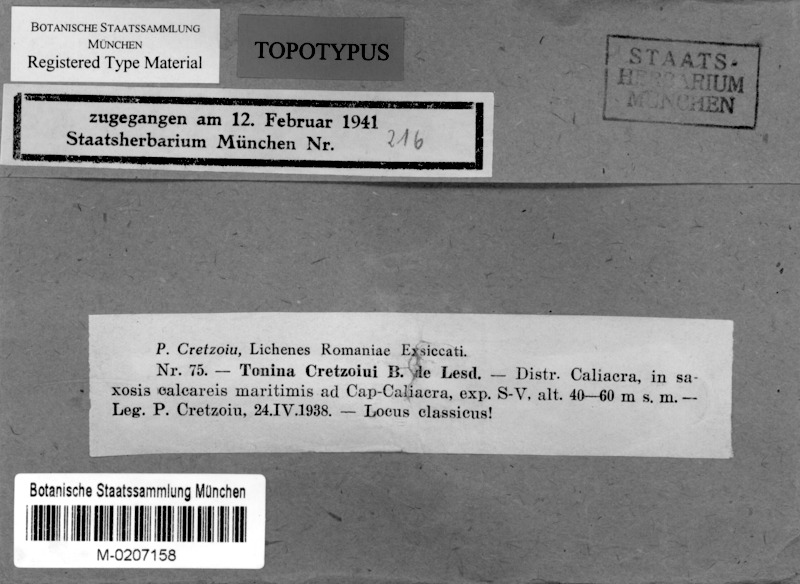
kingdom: Fungi
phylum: Ascomycota
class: Lecanoromycetes
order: Lecanorales
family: Ramalinaceae
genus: Toninia
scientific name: Toninia
